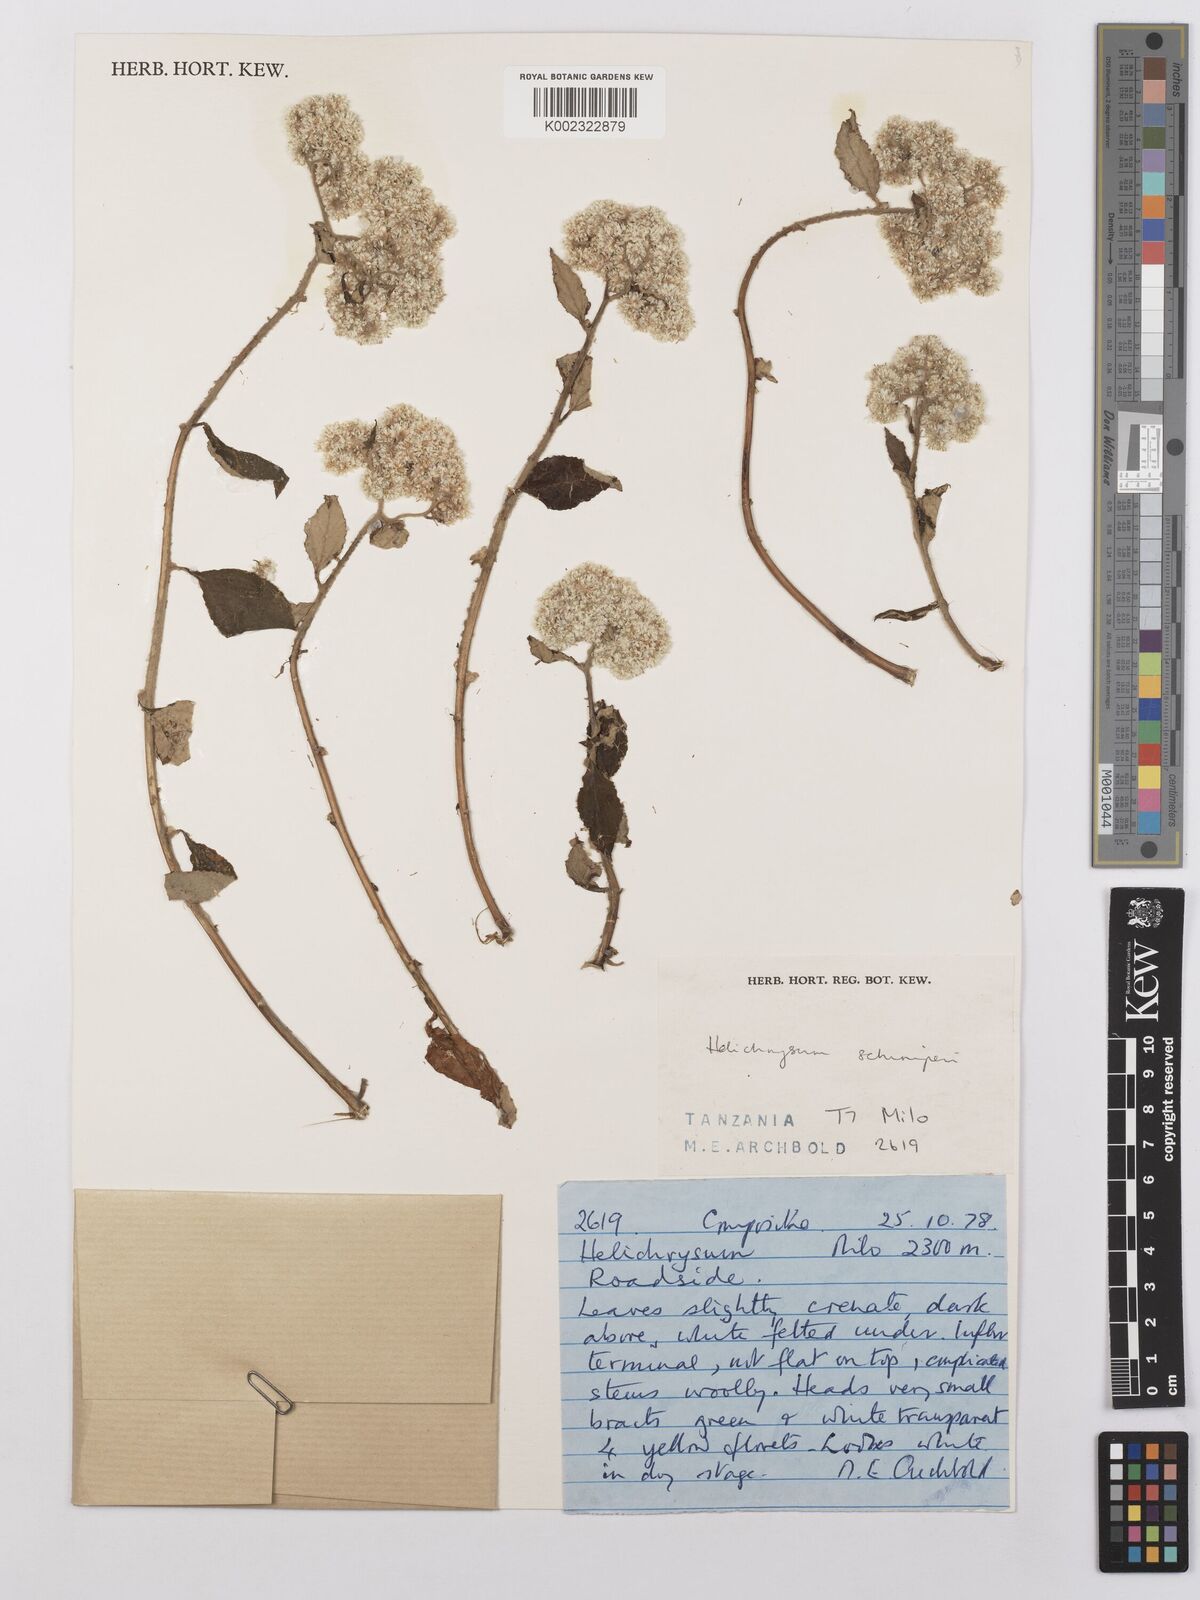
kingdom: Plantae
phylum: Tracheophyta
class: Magnoliopsida
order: Asterales
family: Asteraceae
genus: Helichrysum
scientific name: Helichrysum schimperi
